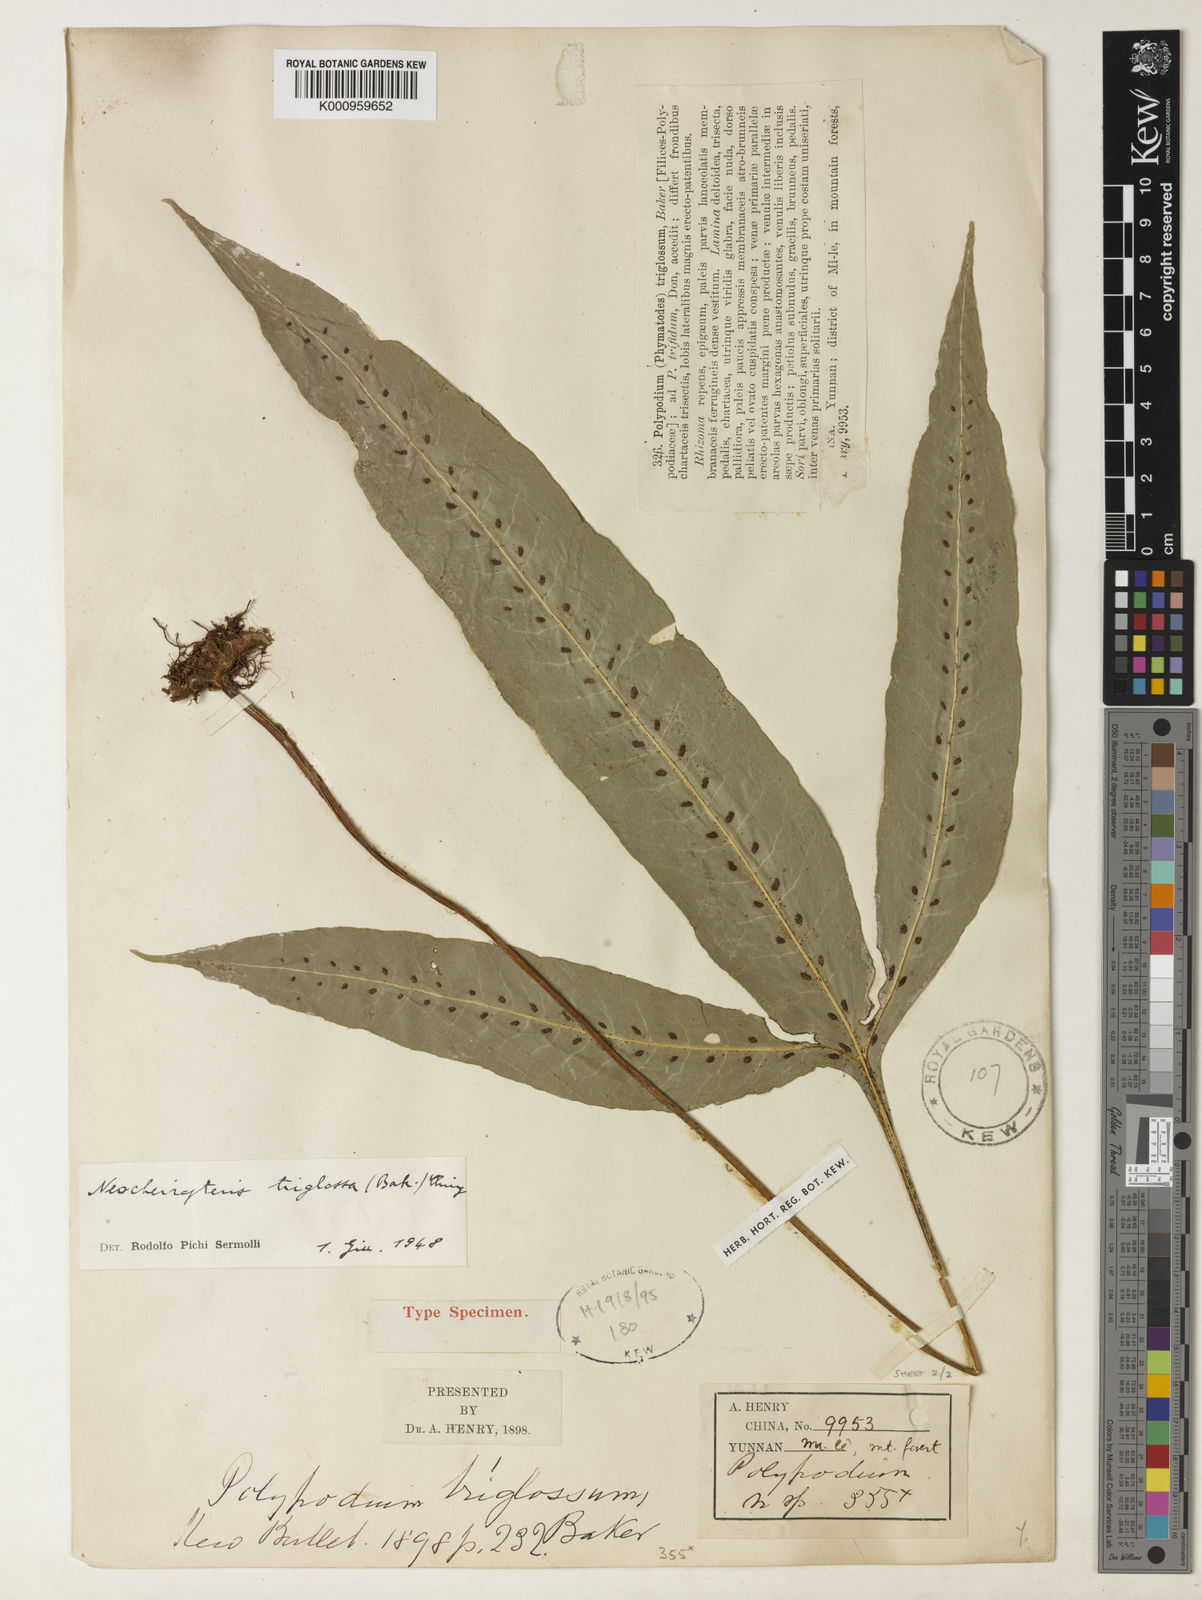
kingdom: Plantae
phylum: Tracheophyta
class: Polypodiopsida
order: Polypodiales
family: Polypodiaceae
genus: Lepisorus
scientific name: Lepisorus triglossus
